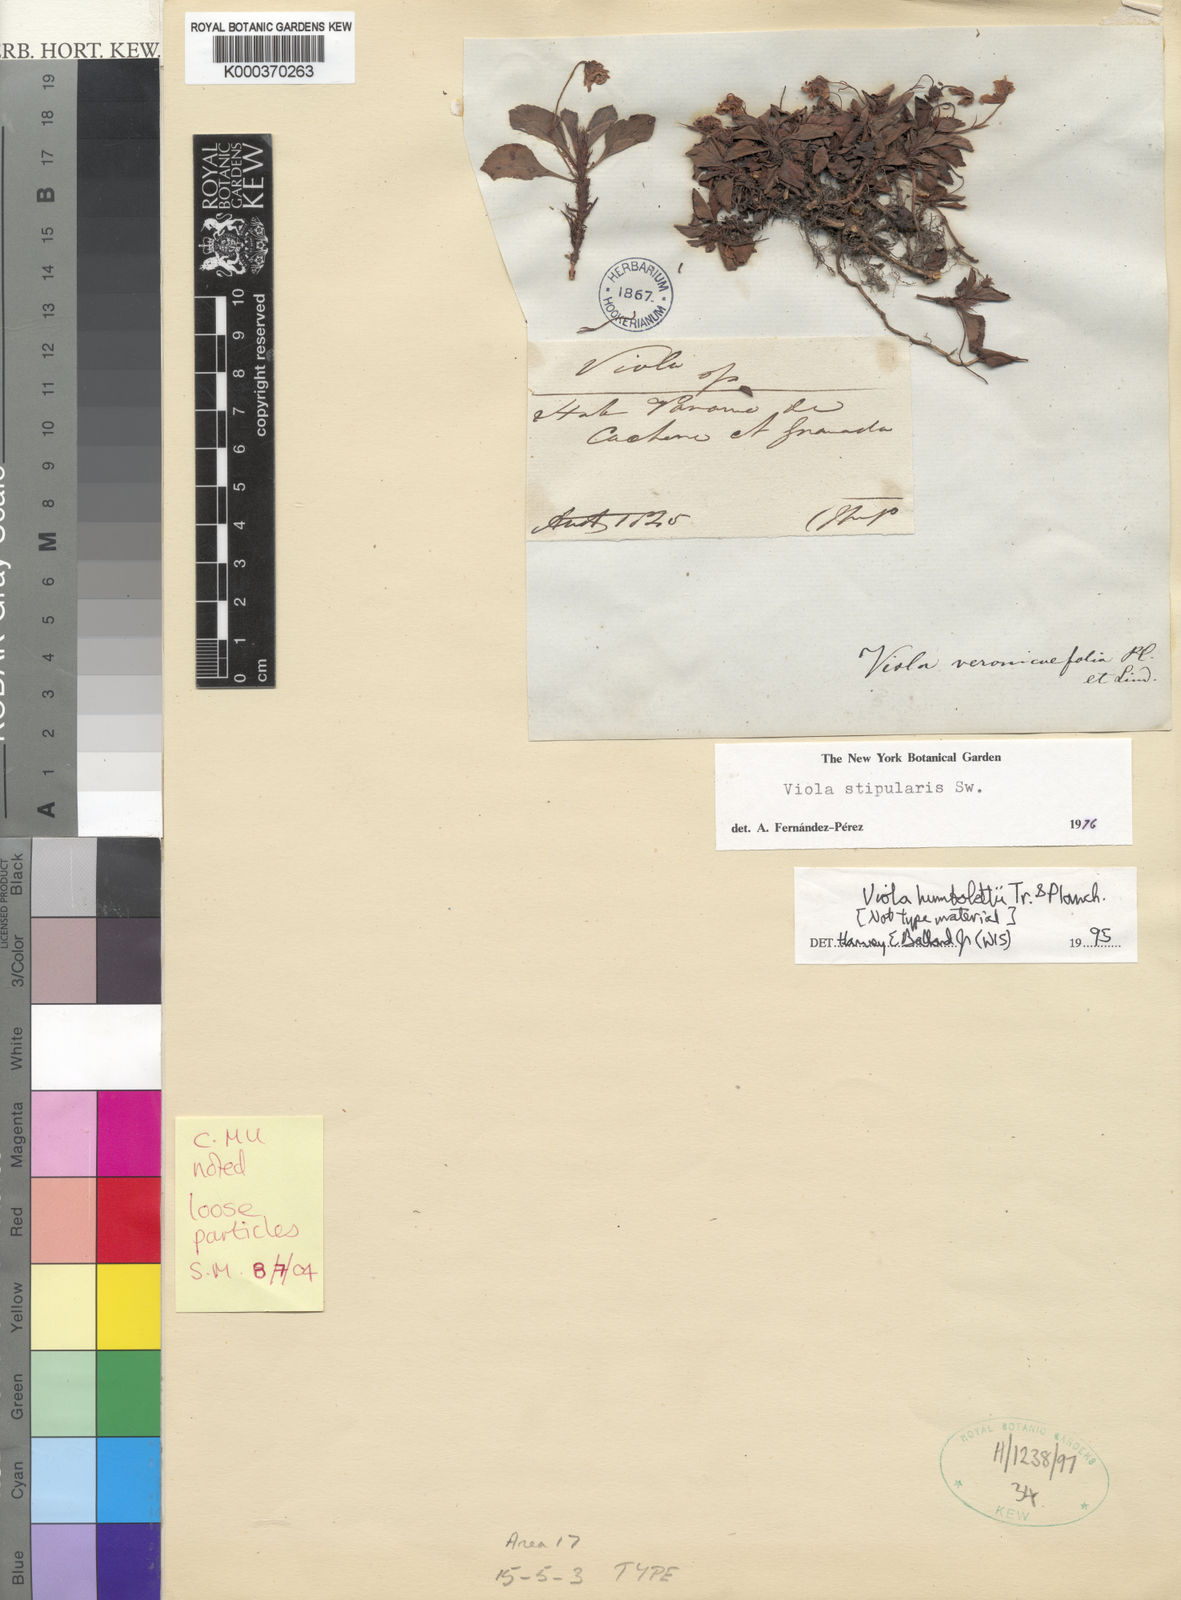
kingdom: Plantae
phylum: Tracheophyta
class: Magnoliopsida
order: Malpighiales
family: Violaceae
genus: Viola
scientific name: Viola dombeyana
